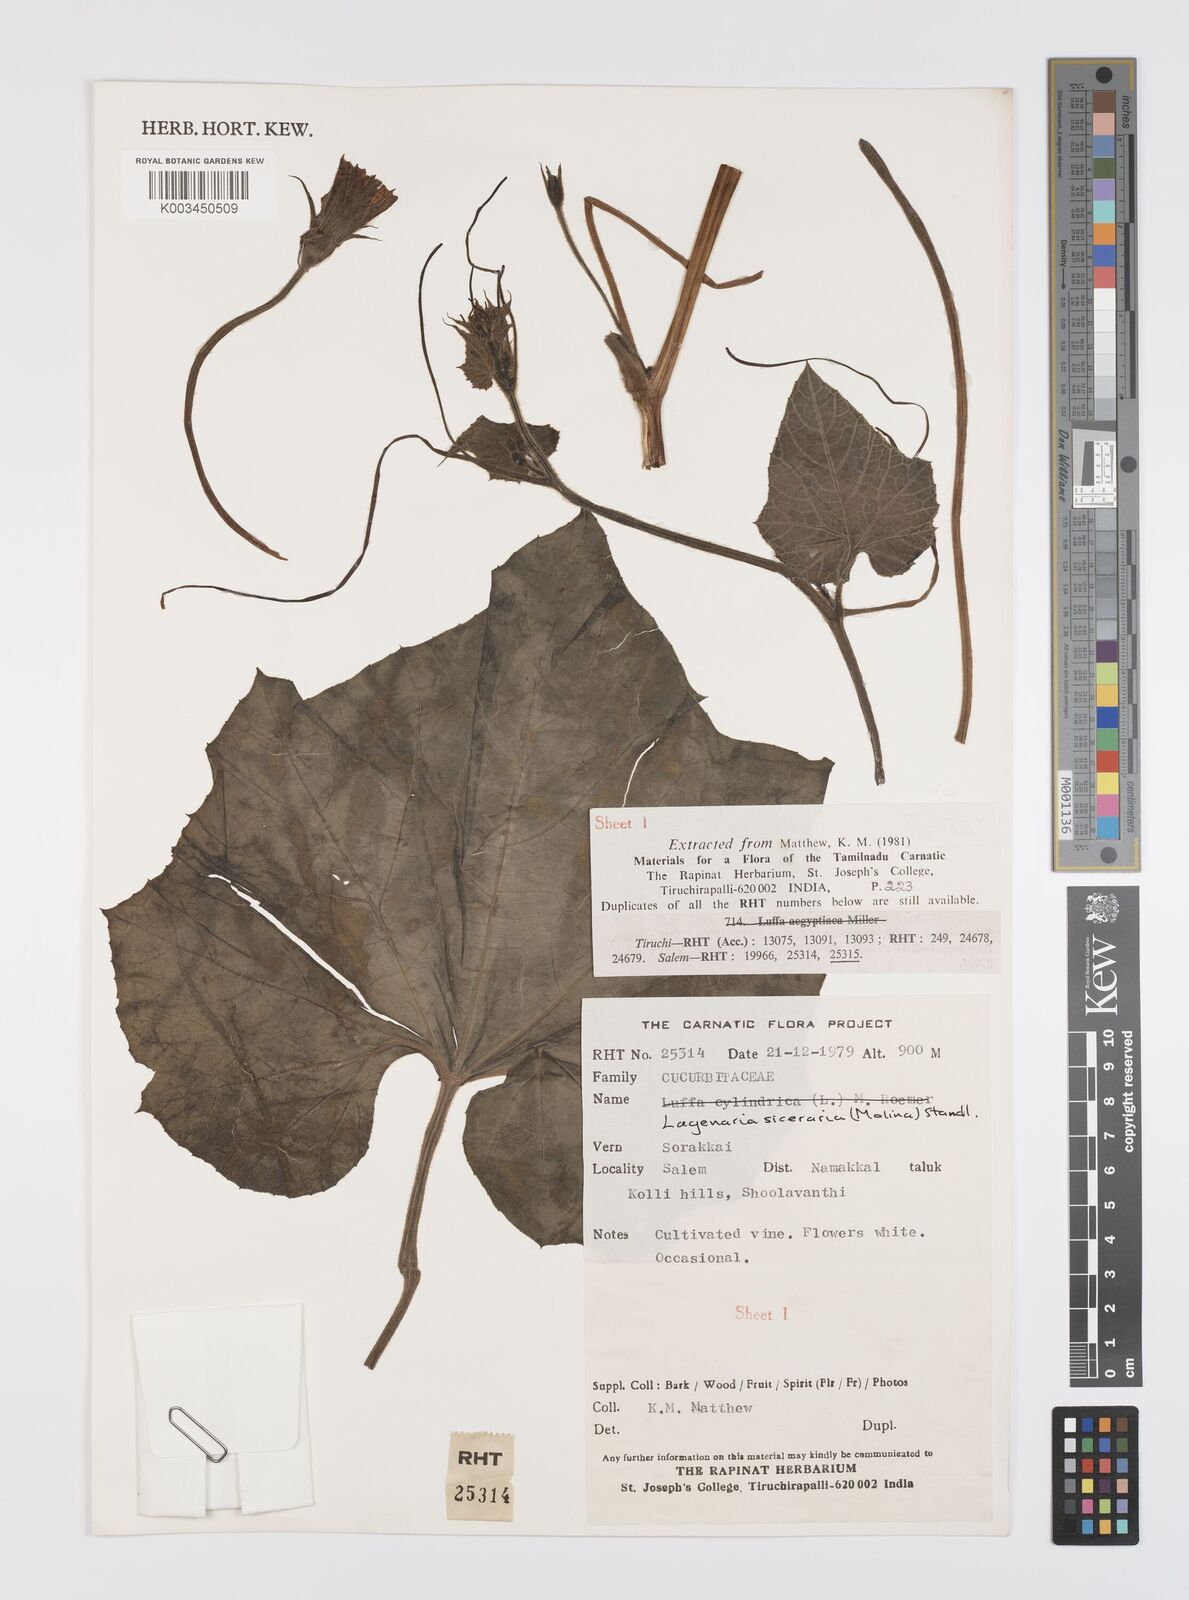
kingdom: Plantae
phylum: Tracheophyta
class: Magnoliopsida
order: Cucurbitales
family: Cucurbitaceae
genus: Lagenaria
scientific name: Lagenaria siceraria
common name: Bottle gourd
